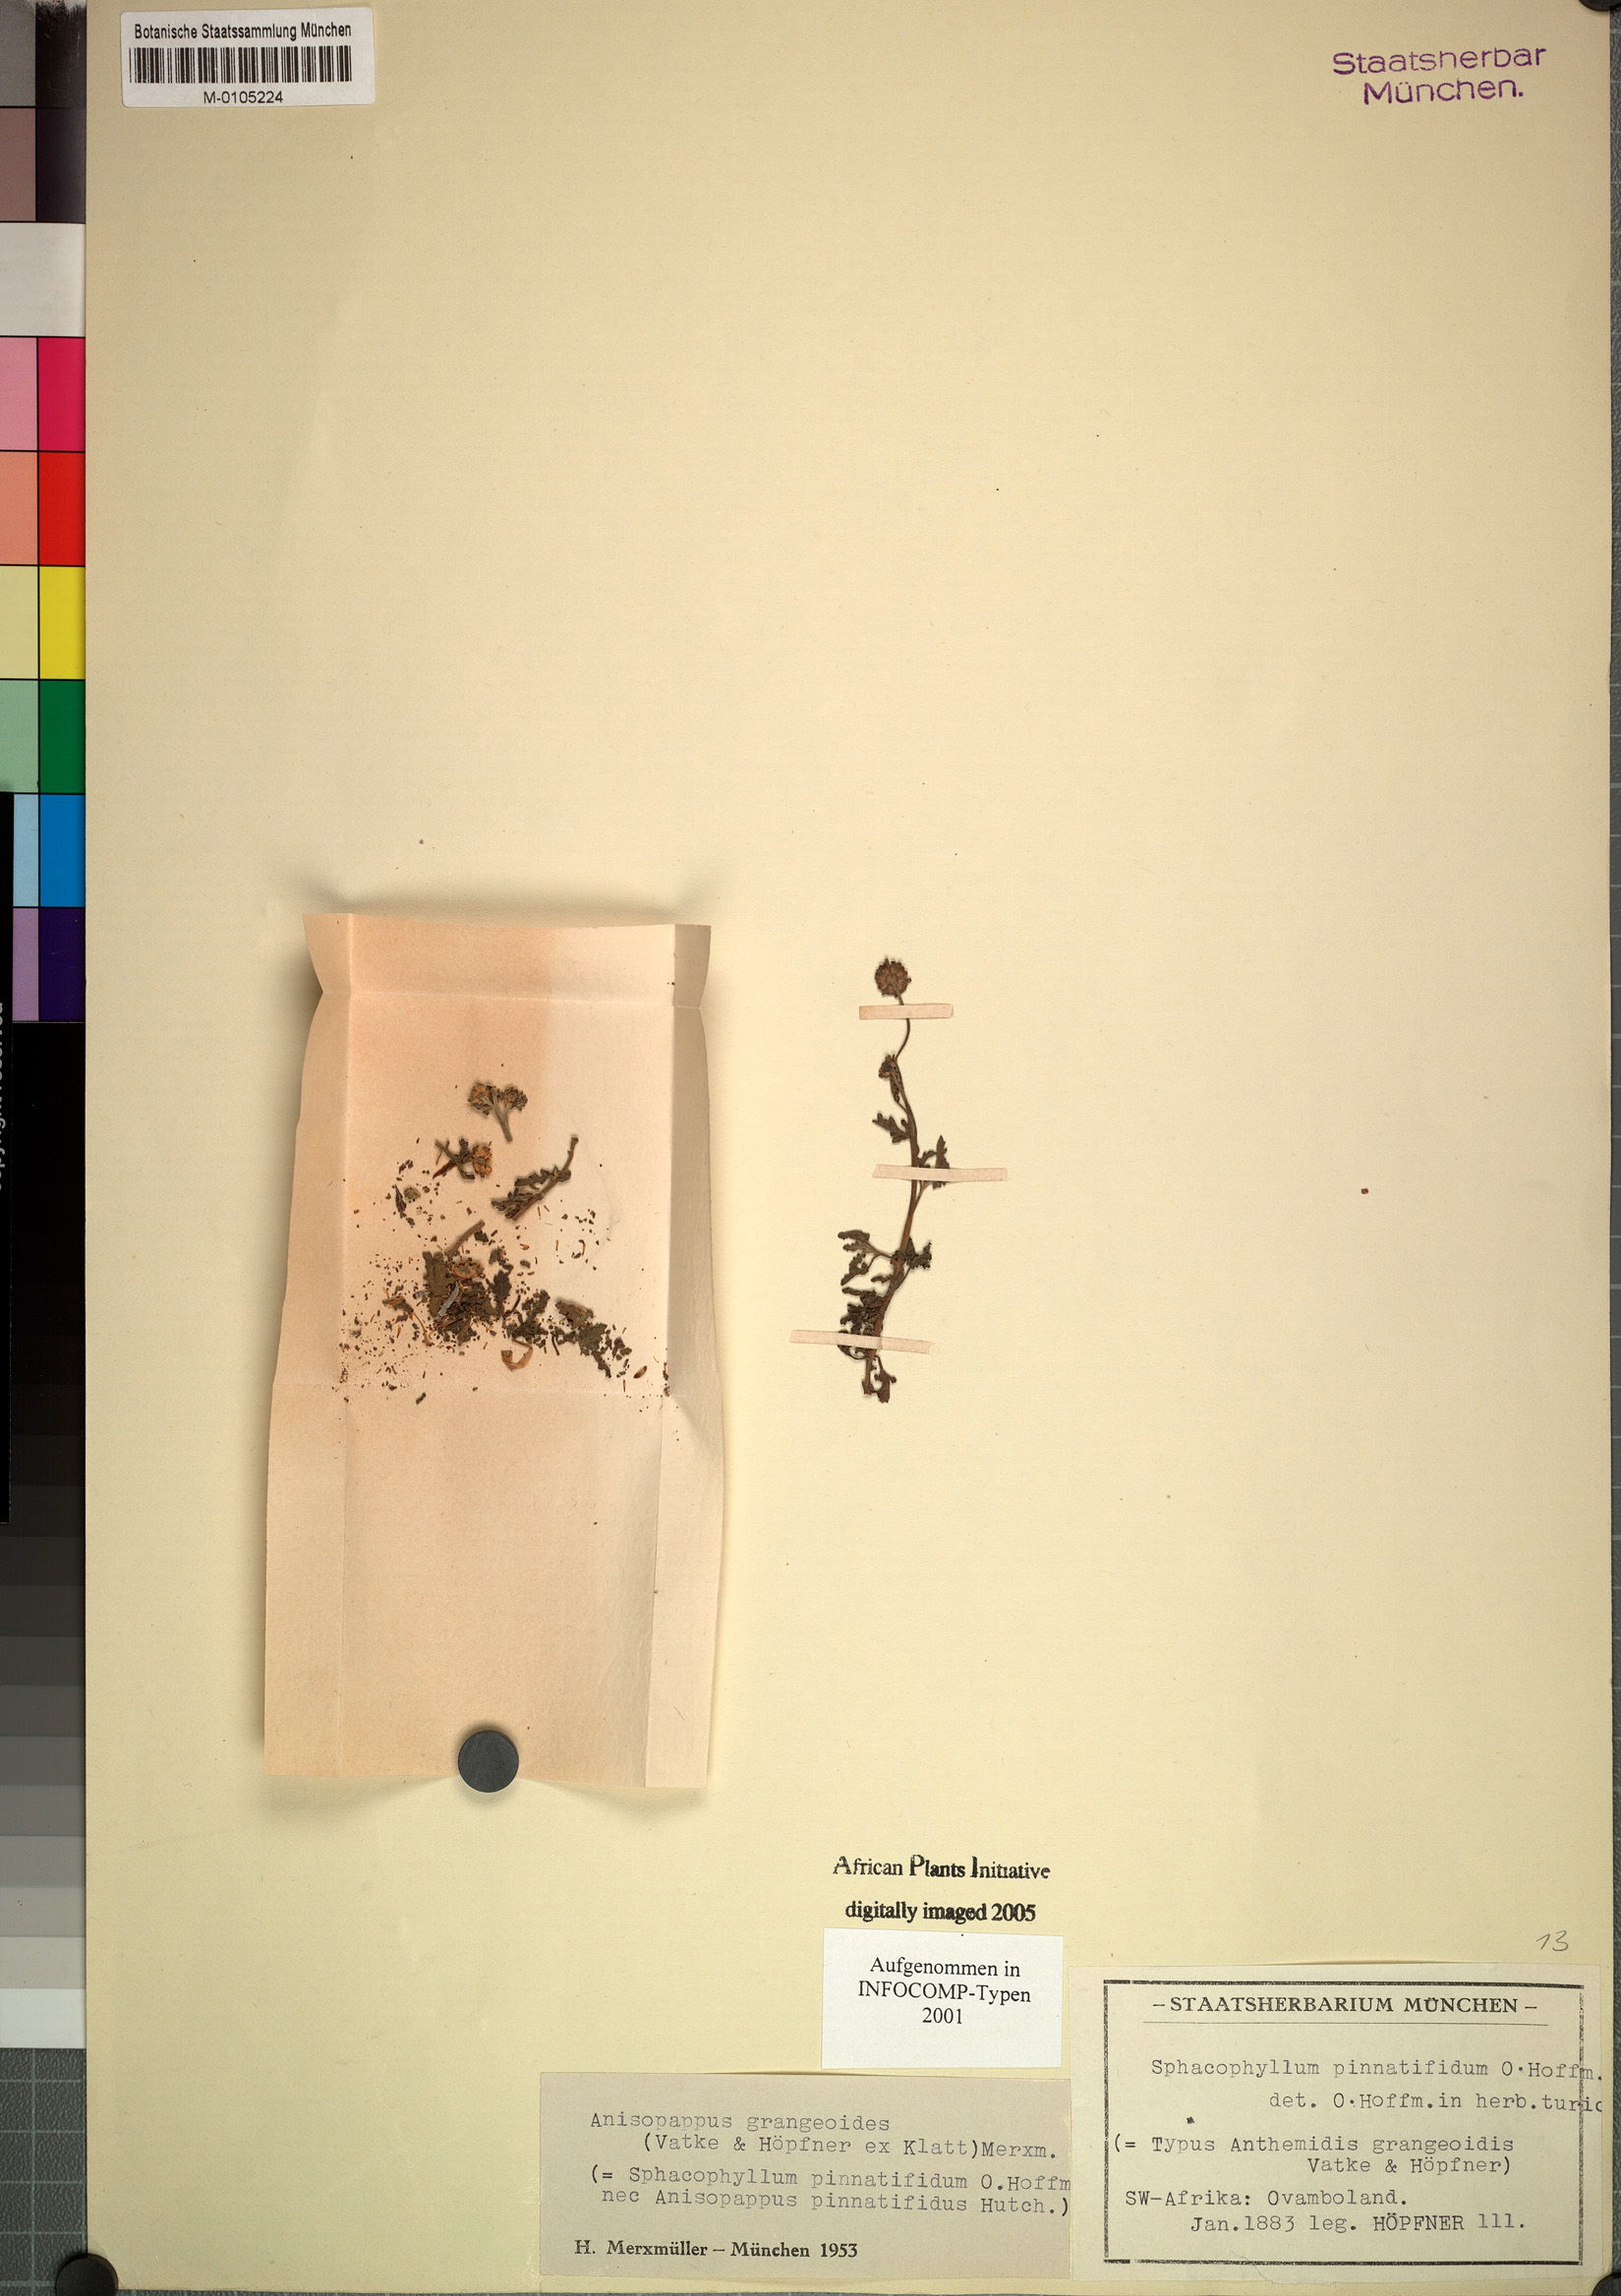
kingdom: Plantae
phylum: Tracheophyta
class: Magnoliopsida
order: Asterales
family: Asteraceae
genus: Anisopappus
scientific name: Anisopappus grangeoides
